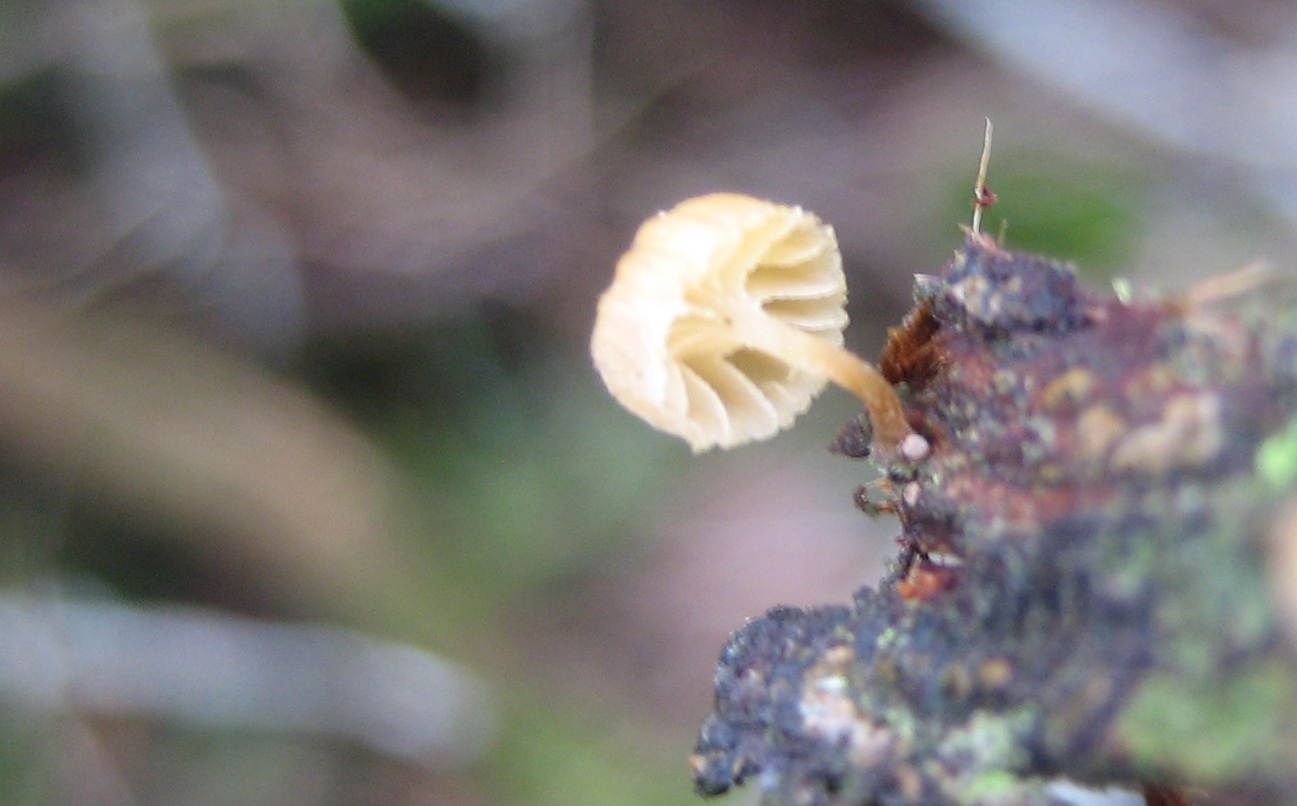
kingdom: Fungi
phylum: Basidiomycota
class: Agaricomycetes
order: Agaricales
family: Mycenaceae
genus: Mycena
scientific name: Mycena juniperina
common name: ene-Huesvamp
